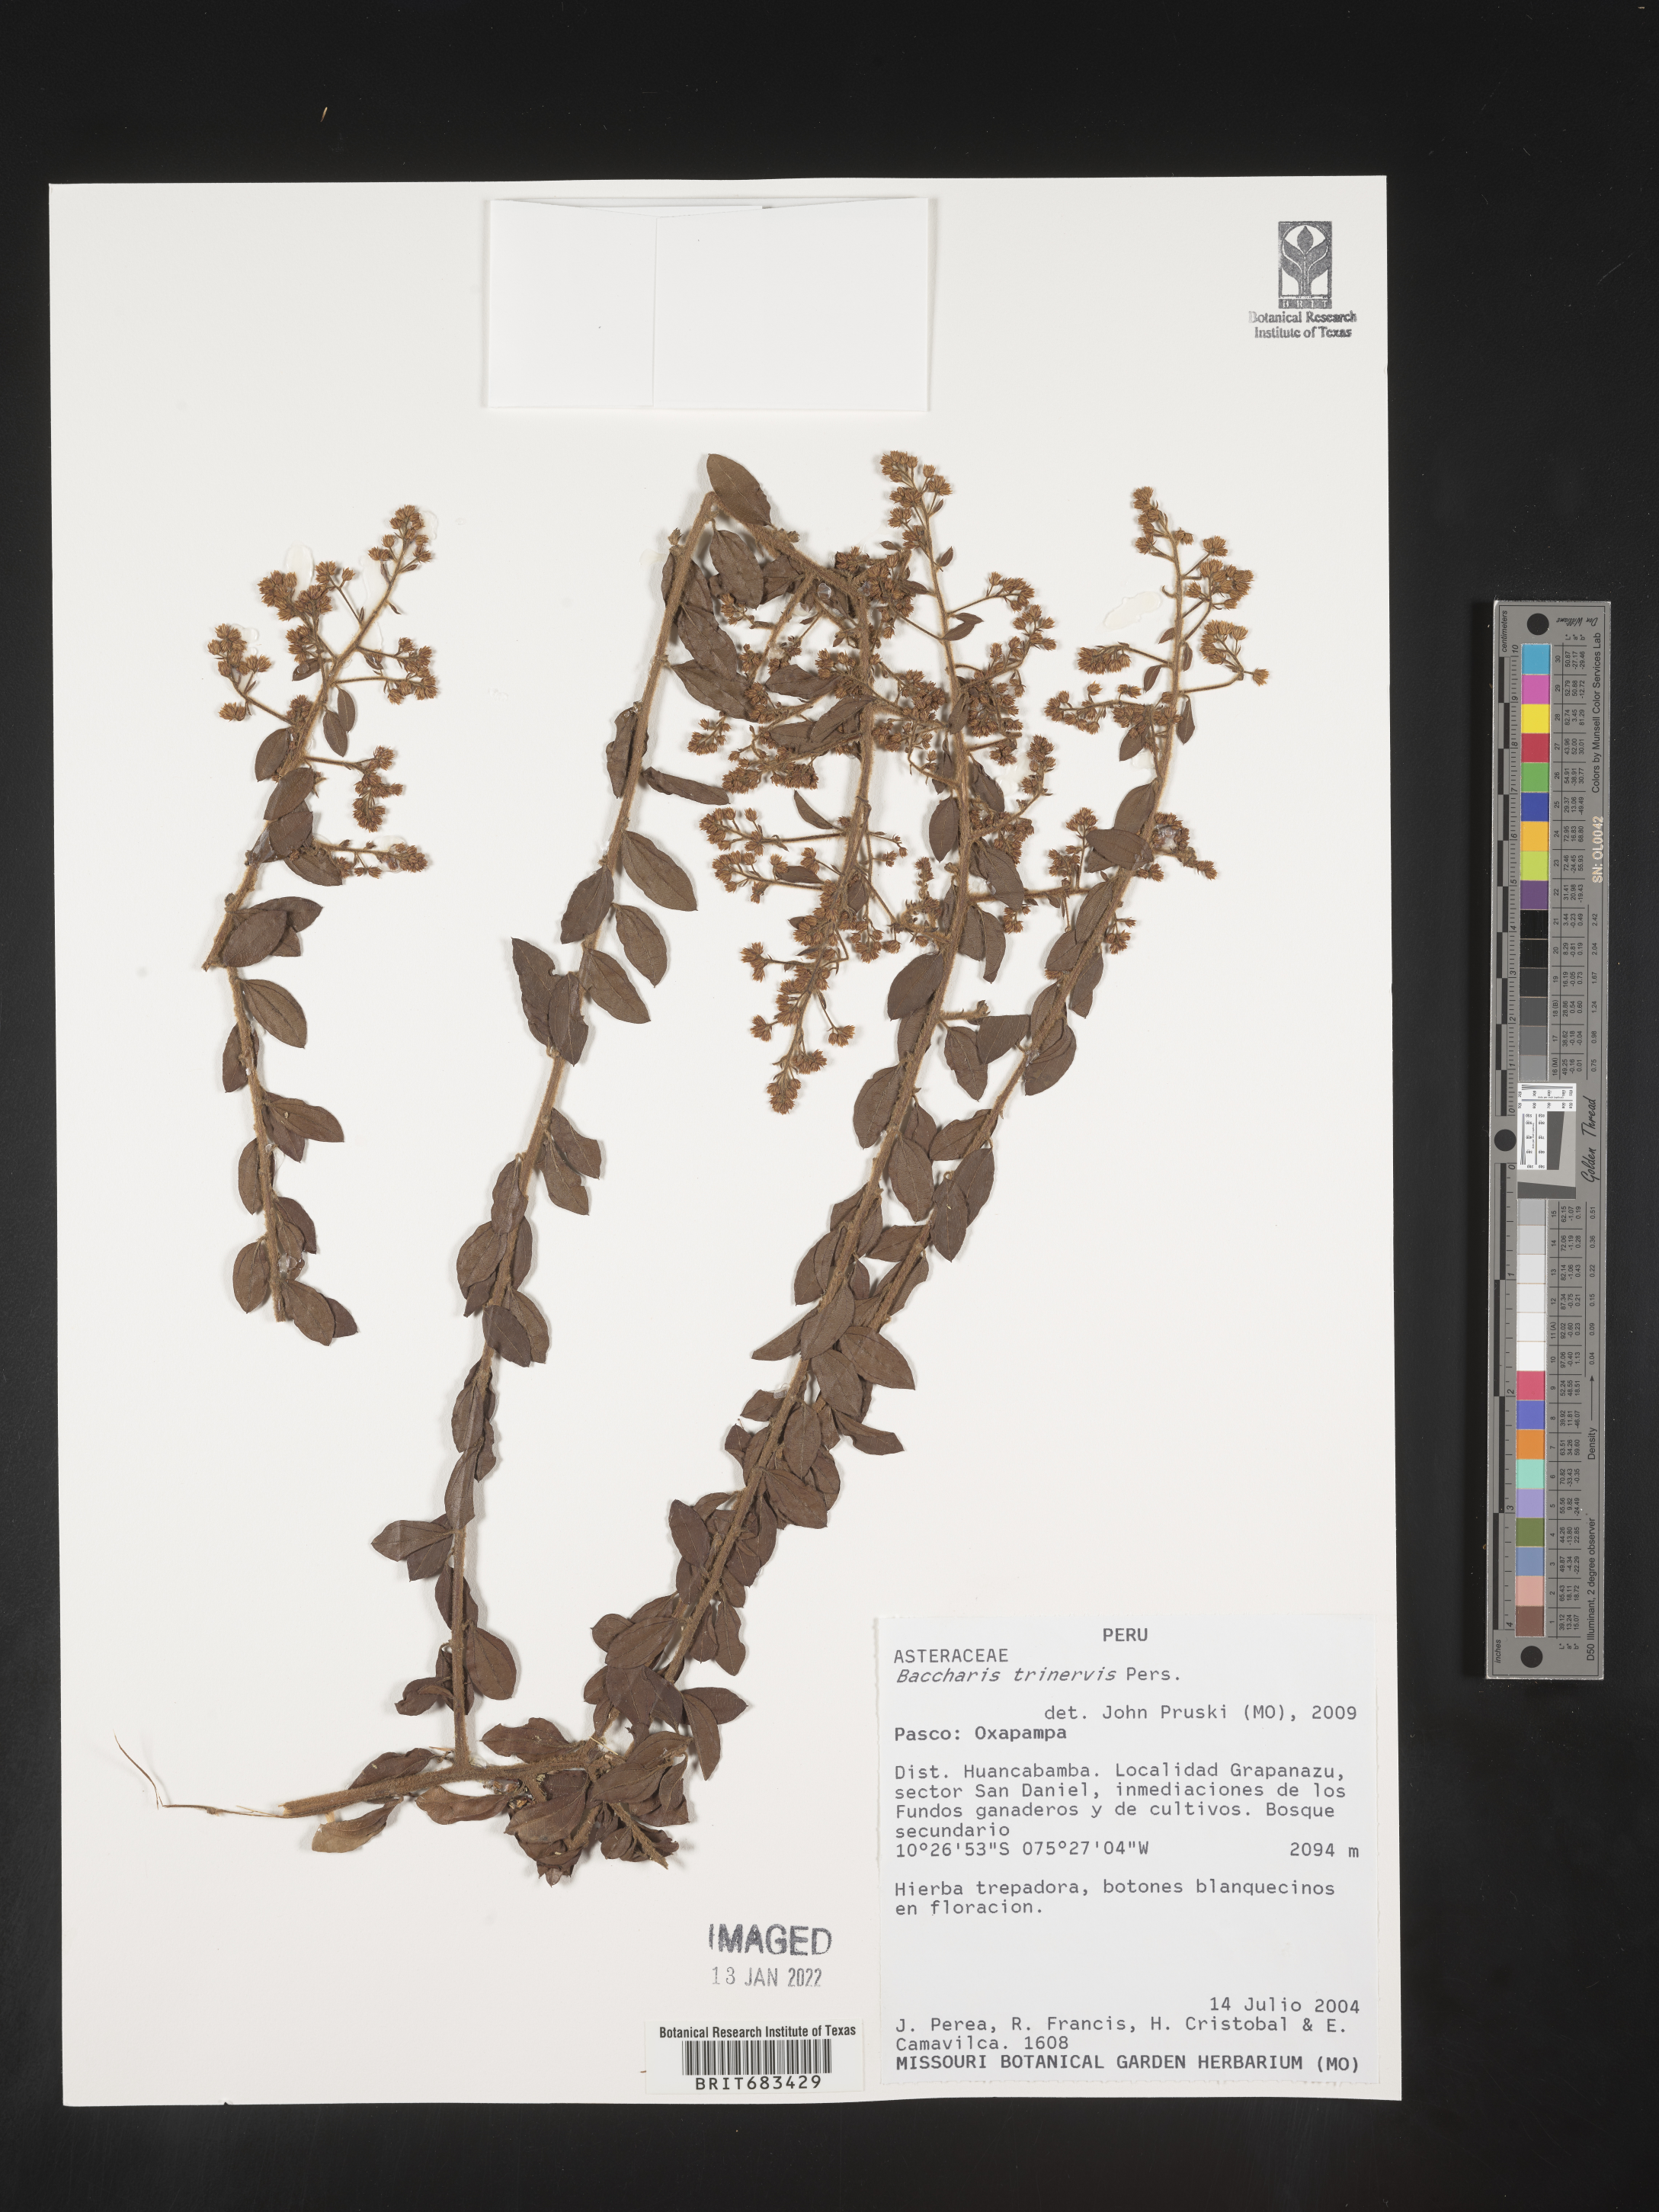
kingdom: Plantae
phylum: Tracheophyta
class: Magnoliopsida
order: Asterales
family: Asteraceae
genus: Baccharis
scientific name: Baccharis trinervis
